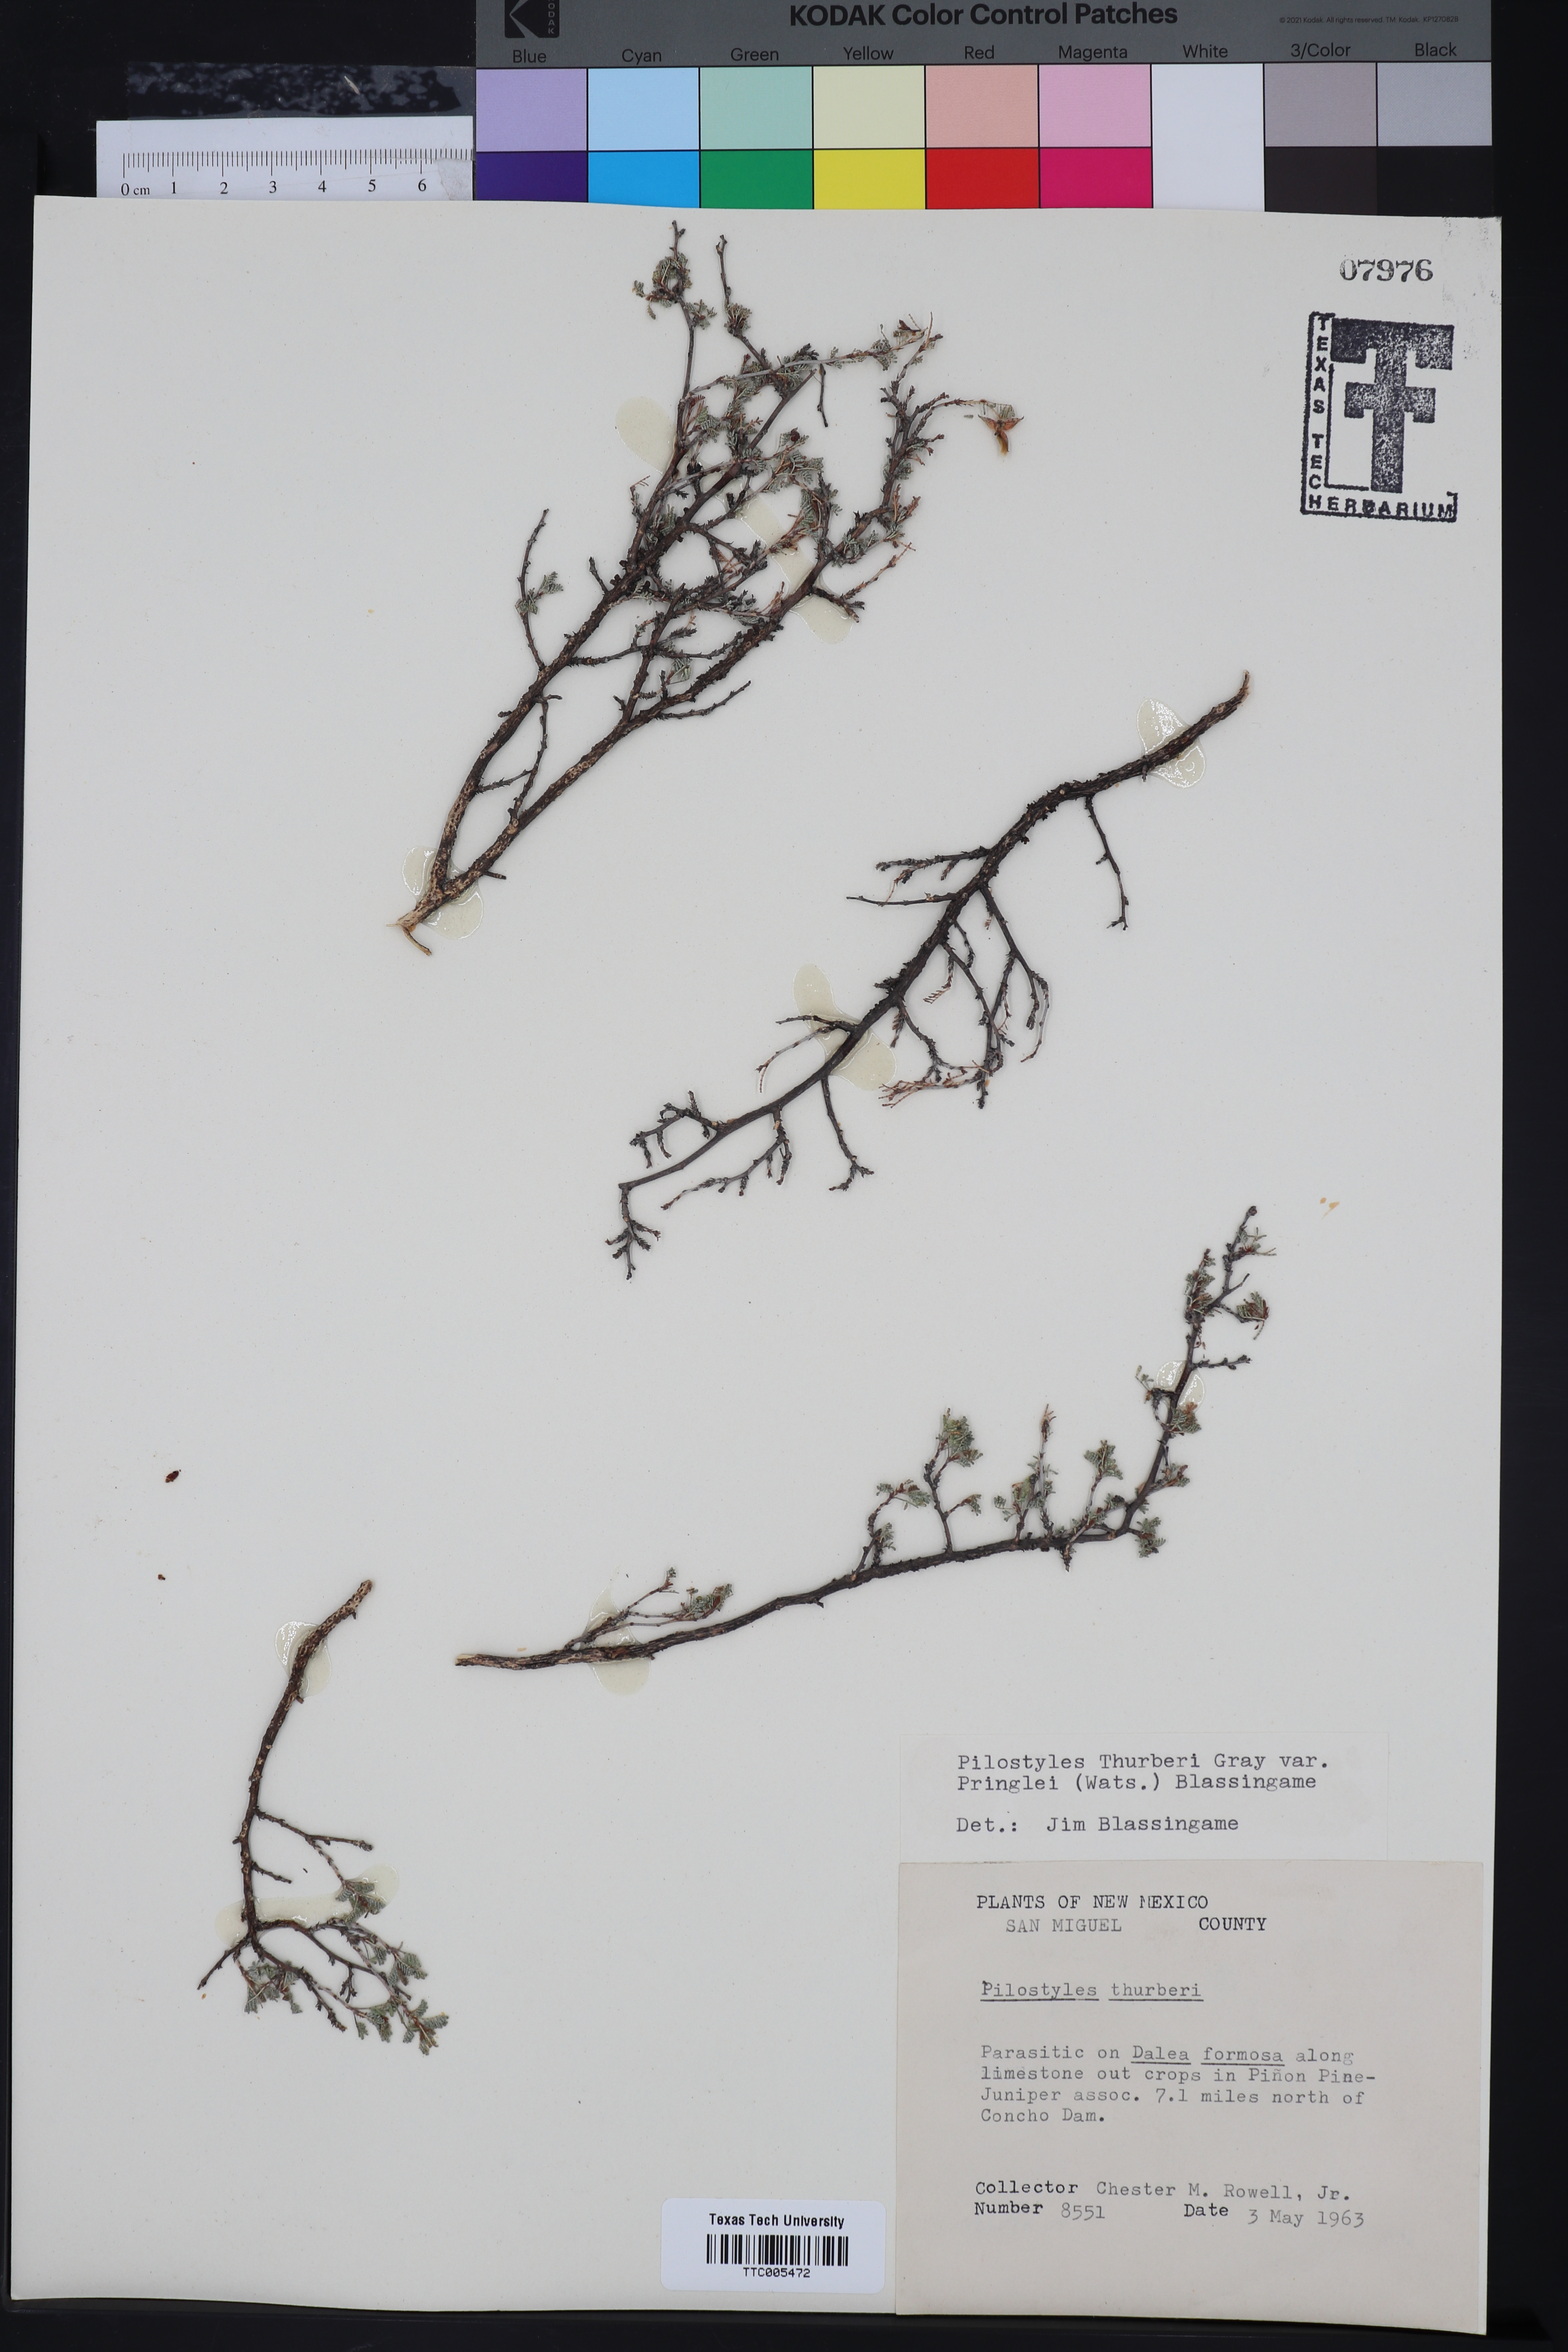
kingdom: Plantae
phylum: Tracheophyta
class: Magnoliopsida
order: Cucurbitales
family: Apodanthaceae
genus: Pilostyles
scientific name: Pilostyles thurberi
